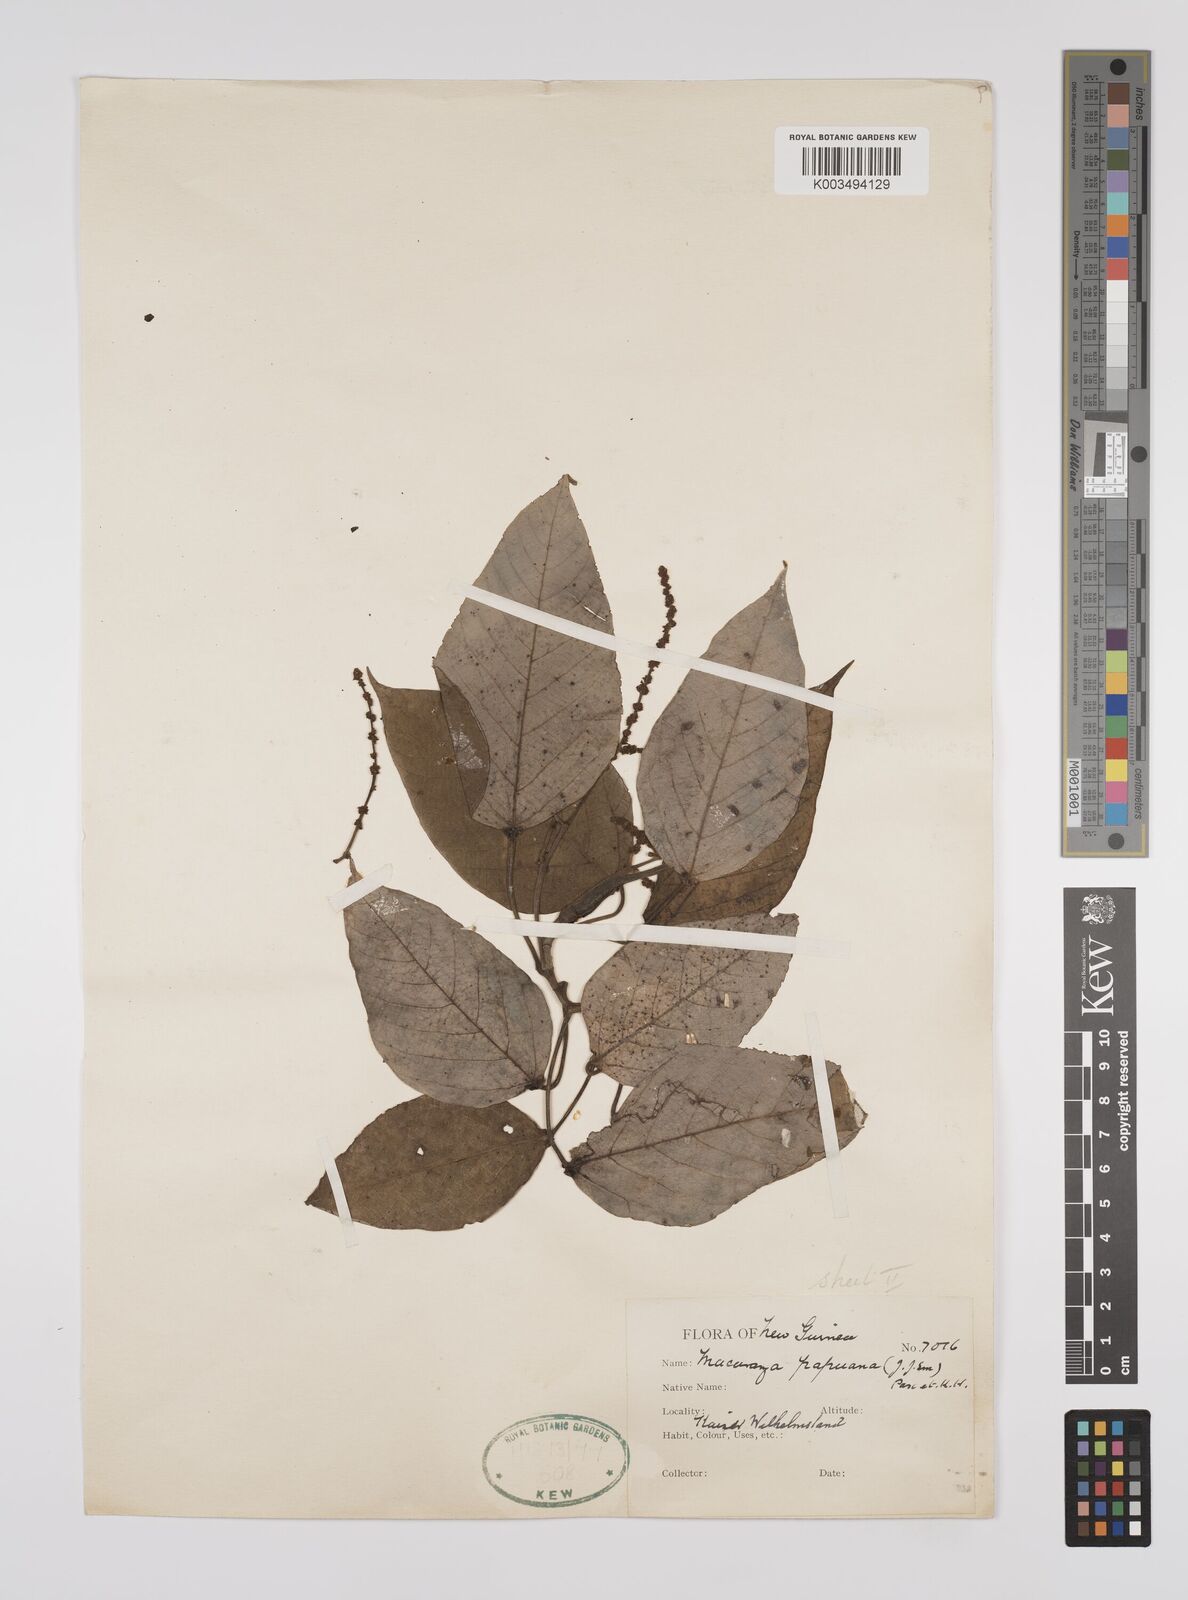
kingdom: Plantae
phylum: Tracheophyta
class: Magnoliopsida
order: Malpighiales
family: Euphorbiaceae
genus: Macaranga
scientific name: Macaranga aleuritoides
